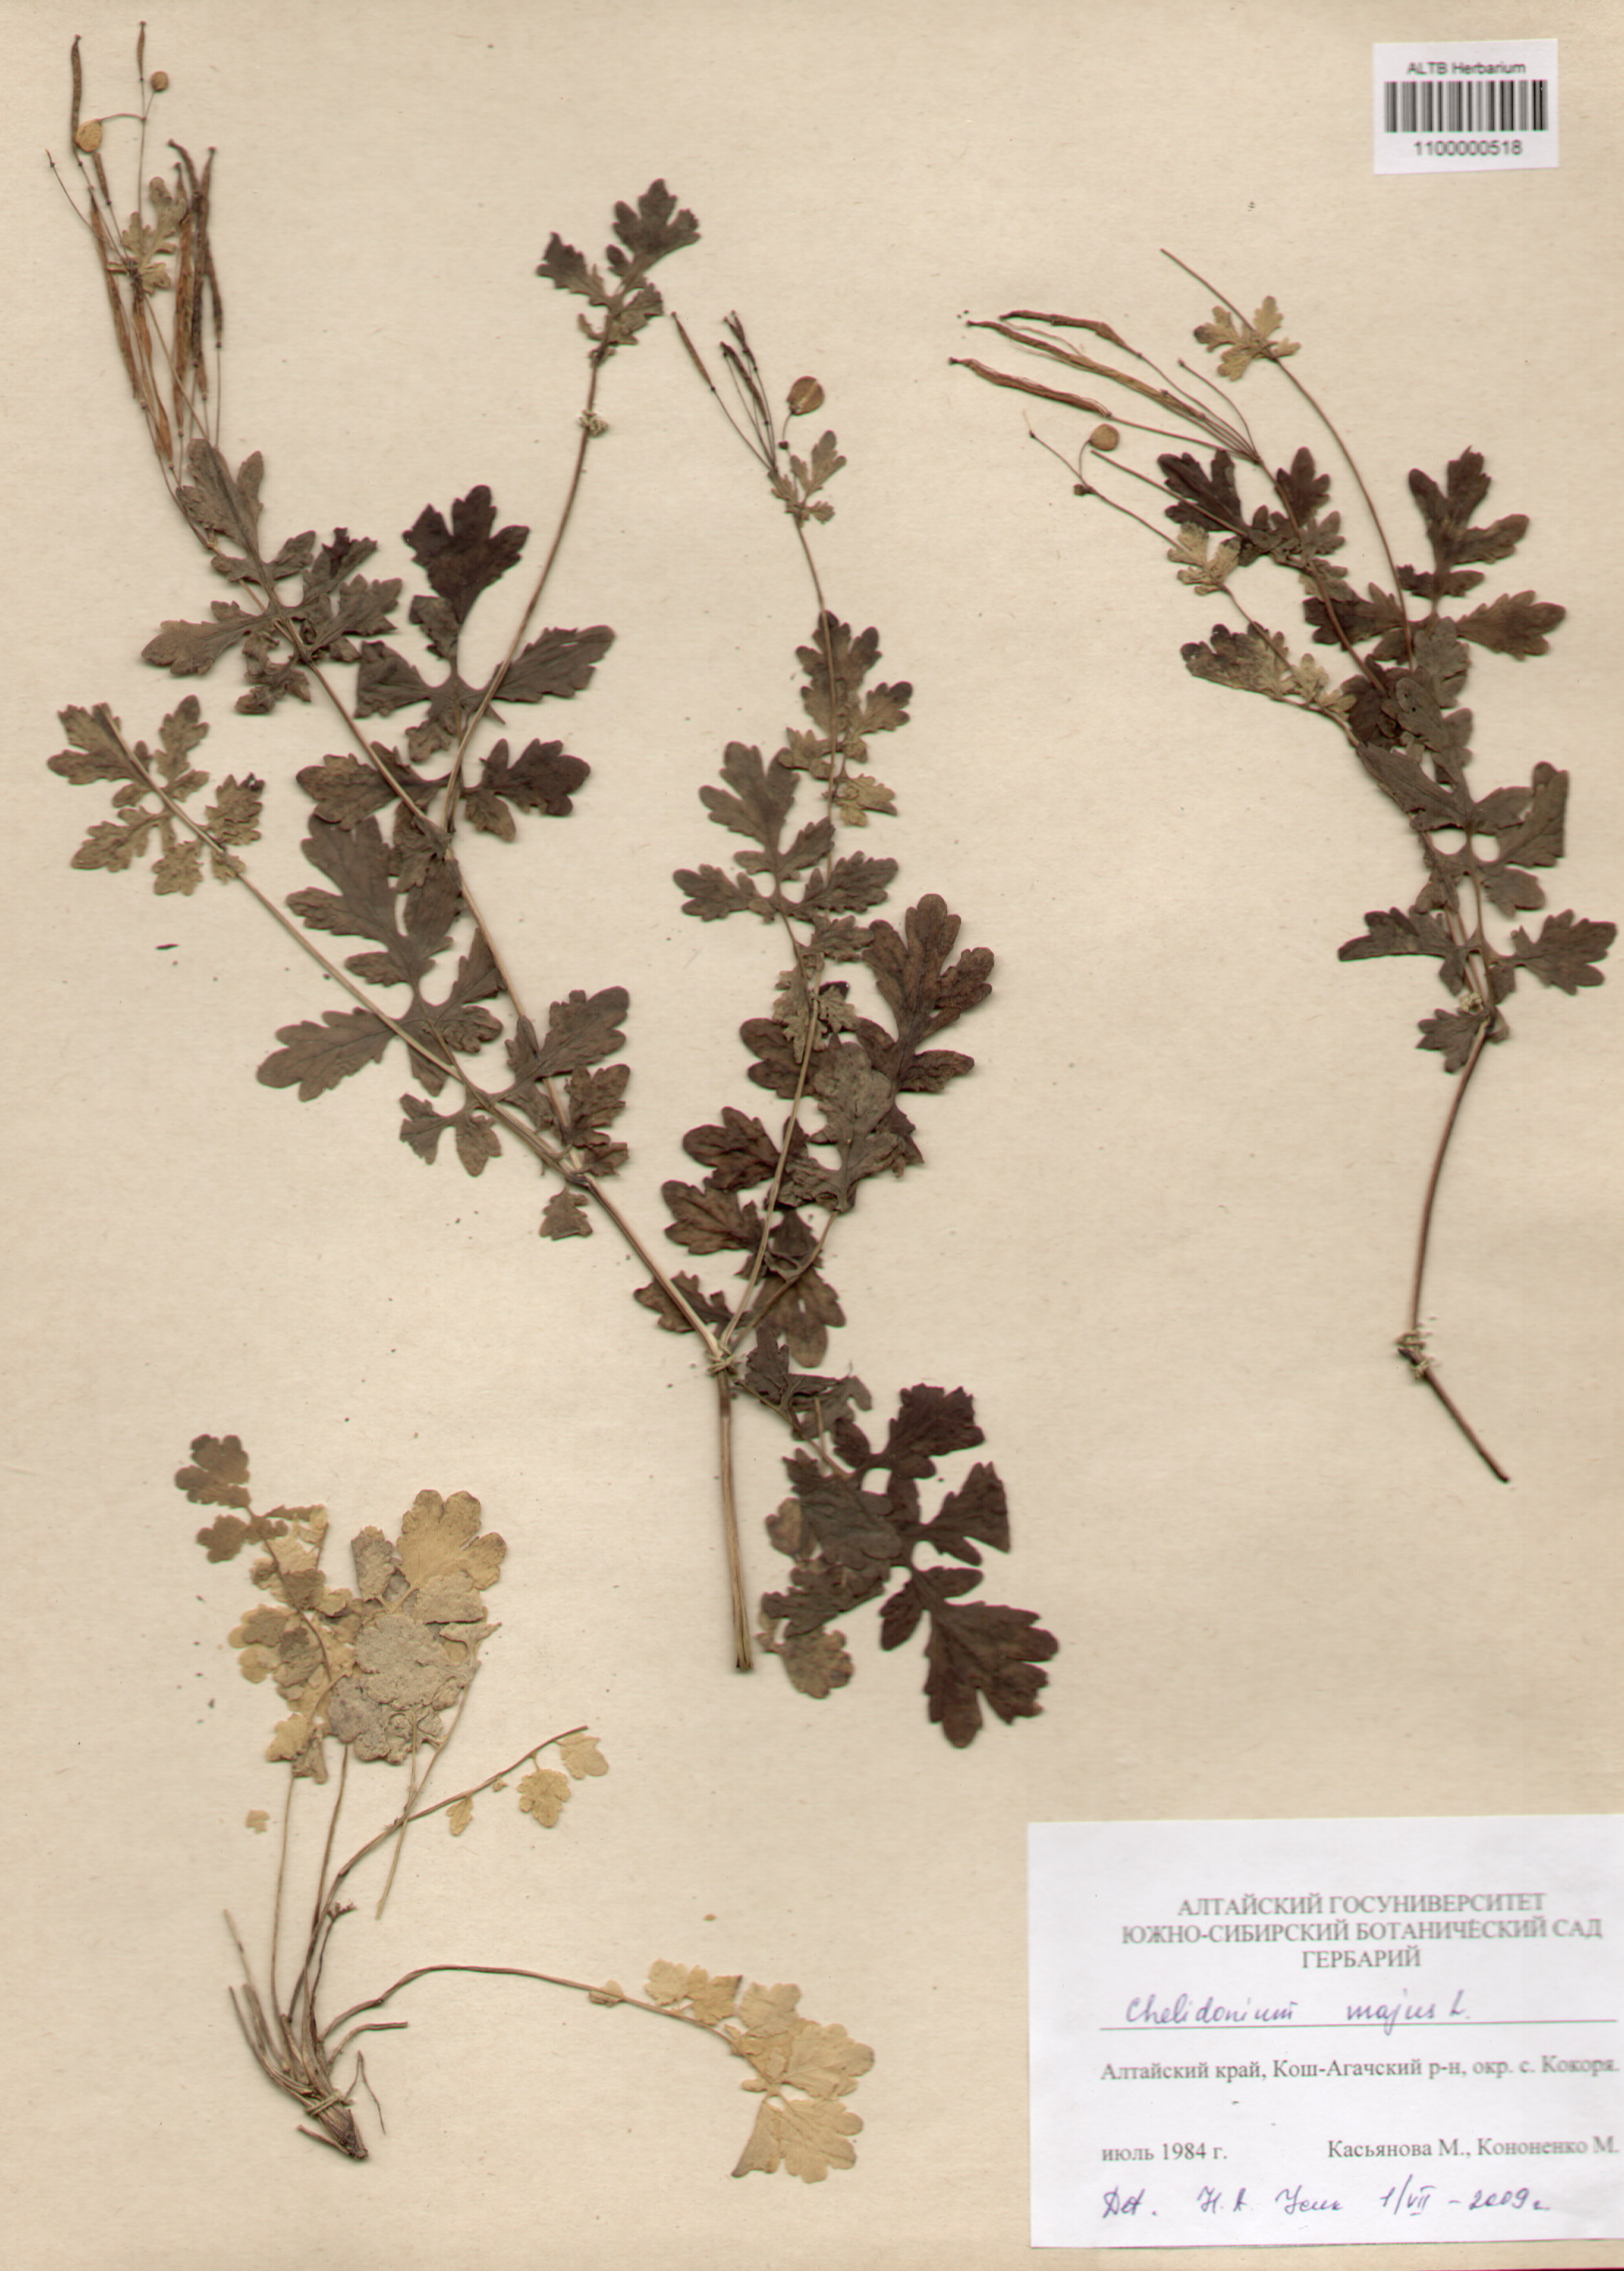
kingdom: Plantae
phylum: Tracheophyta
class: Magnoliopsida
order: Ranunculales
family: Papaveraceae
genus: Chelidonium
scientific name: Chelidonium majus
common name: Greater celandine
